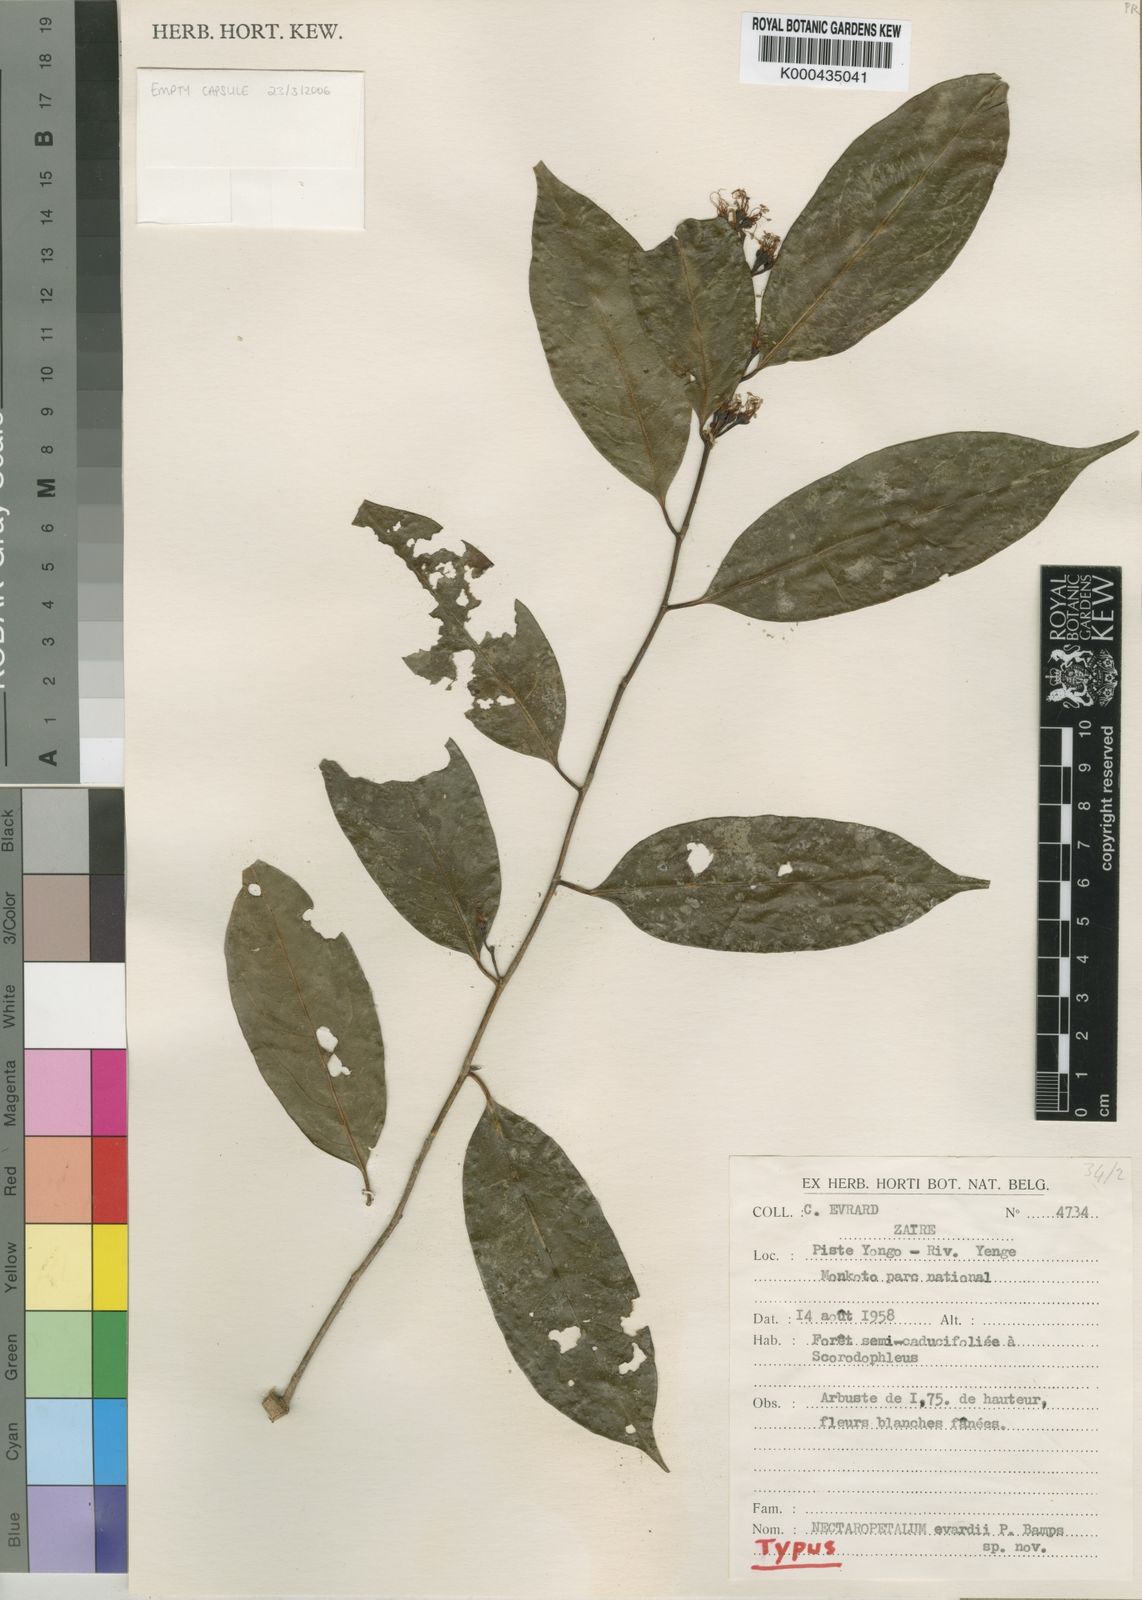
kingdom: Plantae
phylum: Tracheophyta
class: Magnoliopsida
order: Malpighiales
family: Erythroxylaceae
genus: Erythroxylum
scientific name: Erythroxylum
